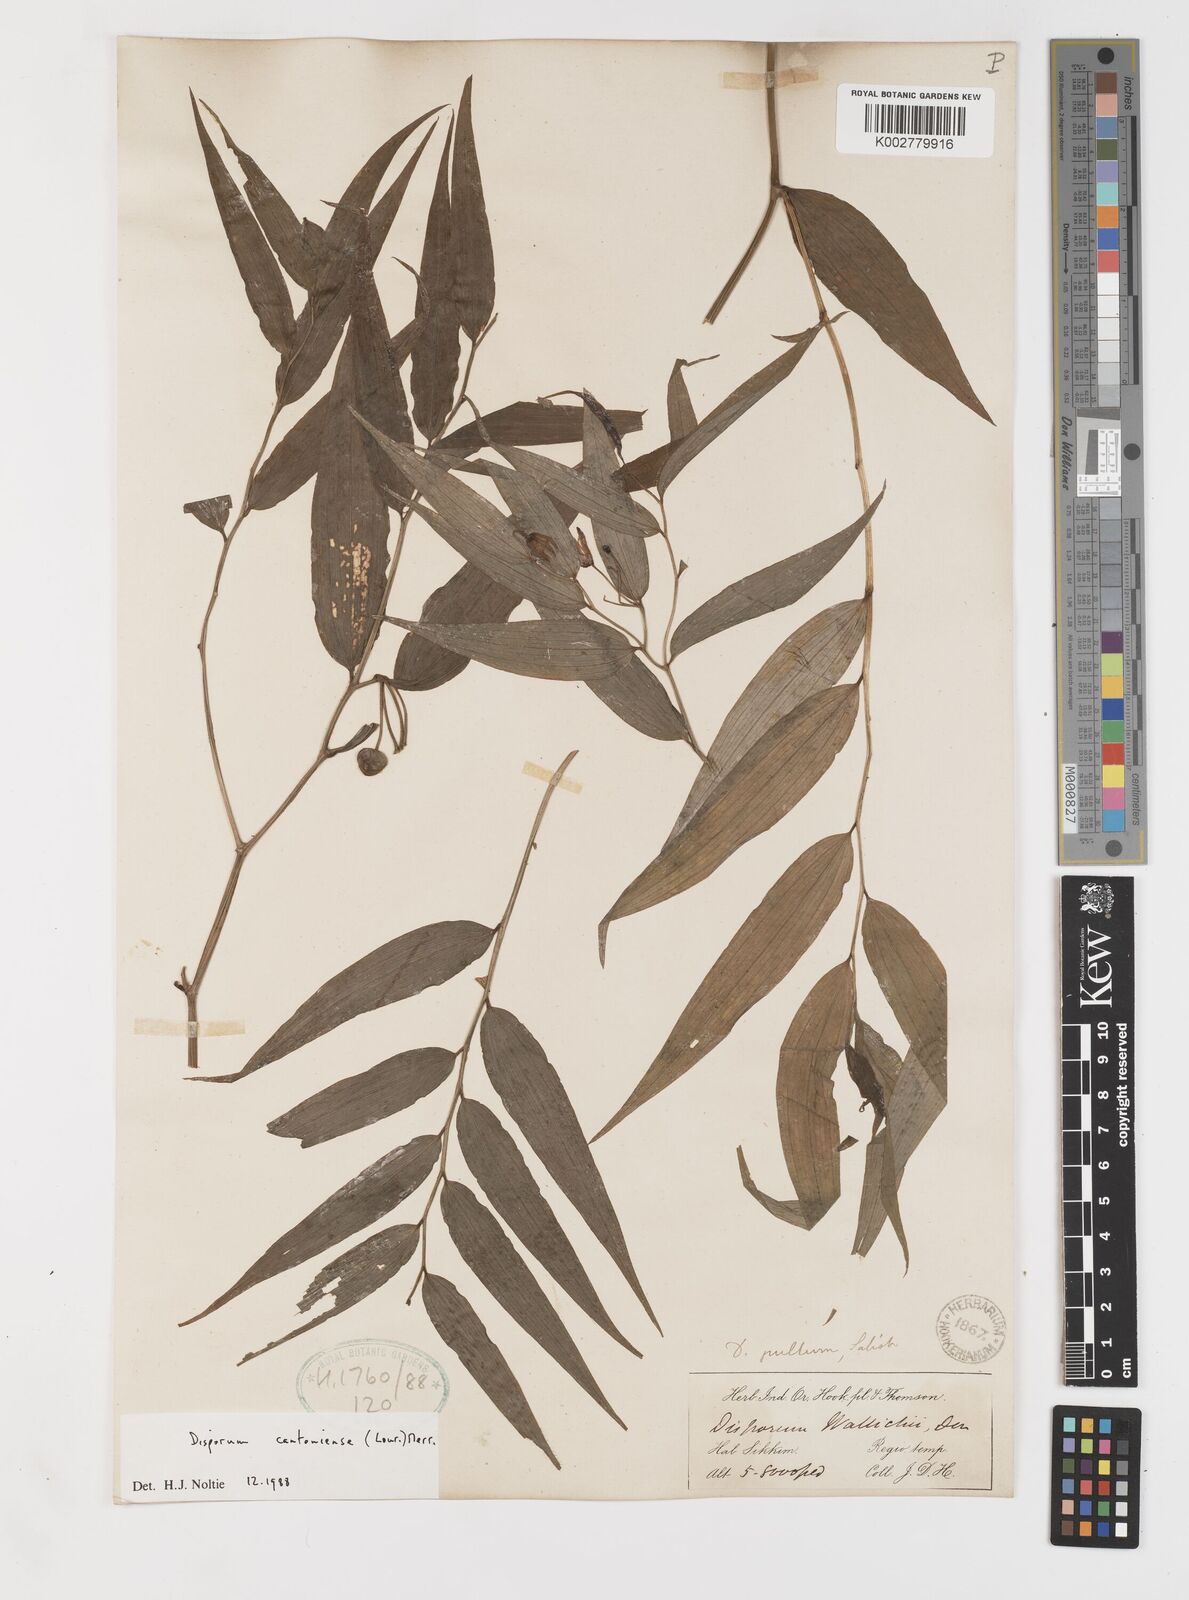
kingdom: Plantae
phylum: Tracheophyta
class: Liliopsida
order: Liliales
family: Colchicaceae
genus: Disporum
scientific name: Disporum cantoniense
